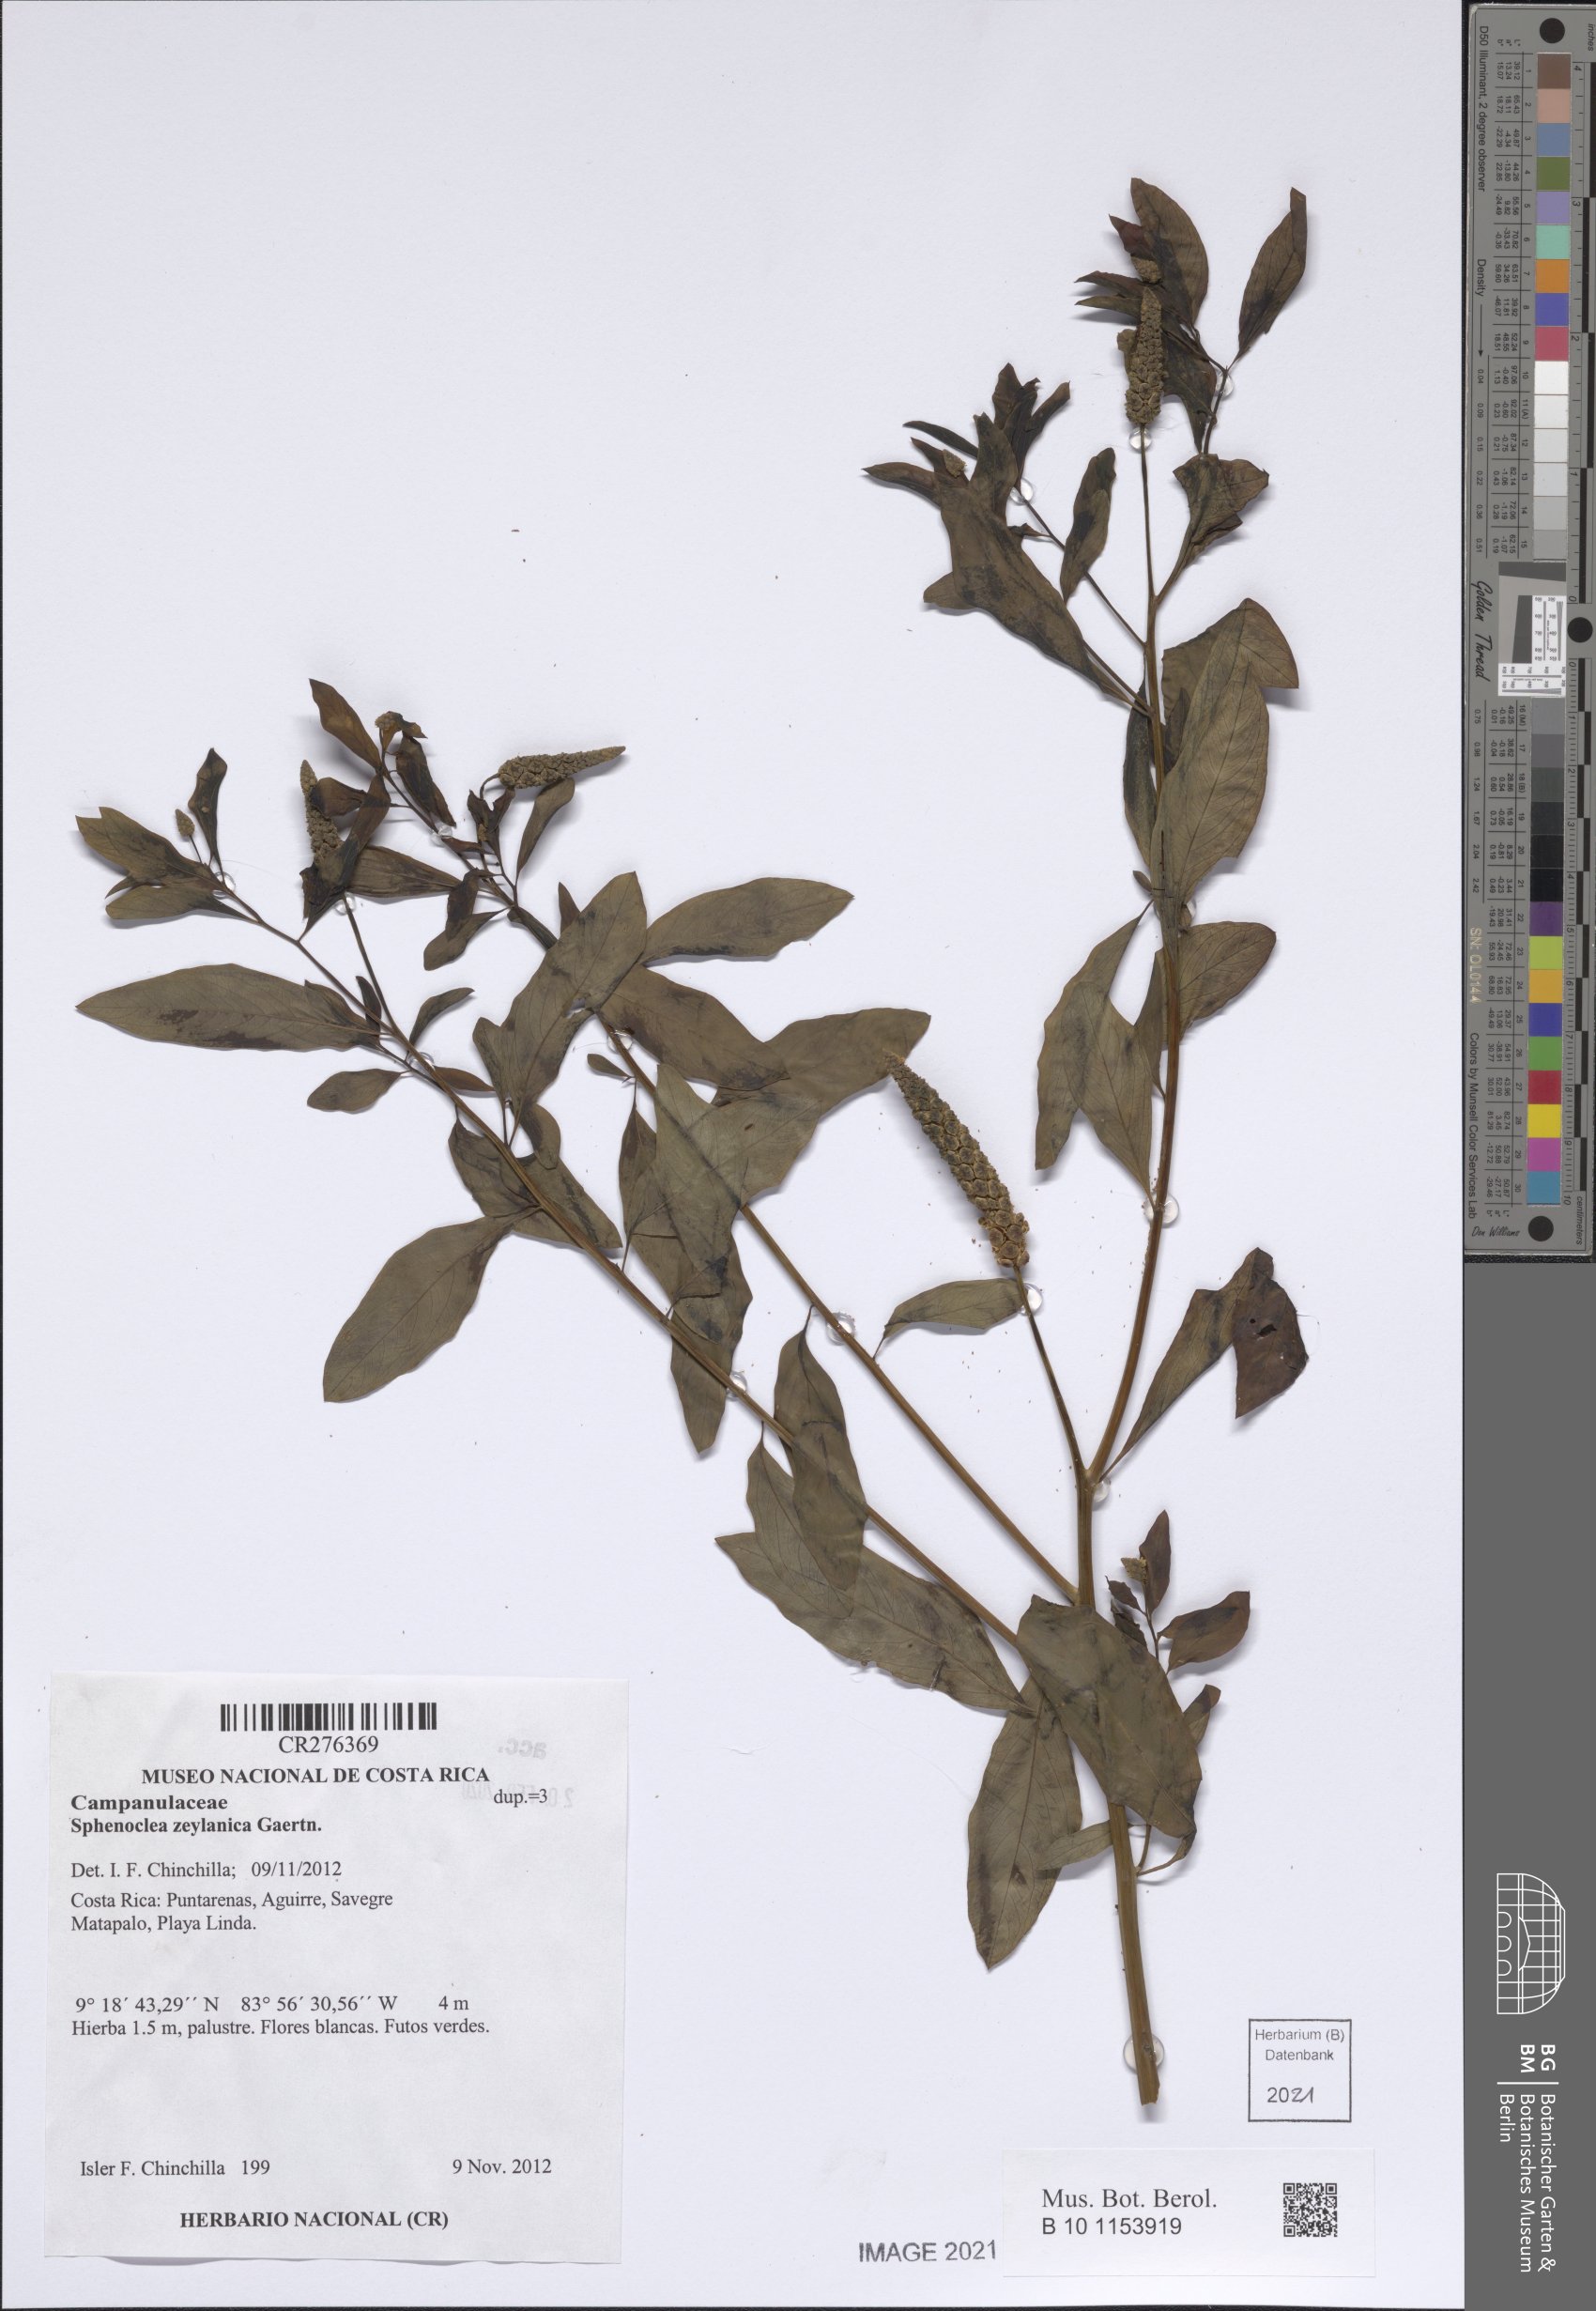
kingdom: Plantae
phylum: Tracheophyta
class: Magnoliopsida
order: Solanales
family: Sphenocleaceae
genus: Sphenoclea
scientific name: Sphenoclea zeylanica
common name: Chickenspike
